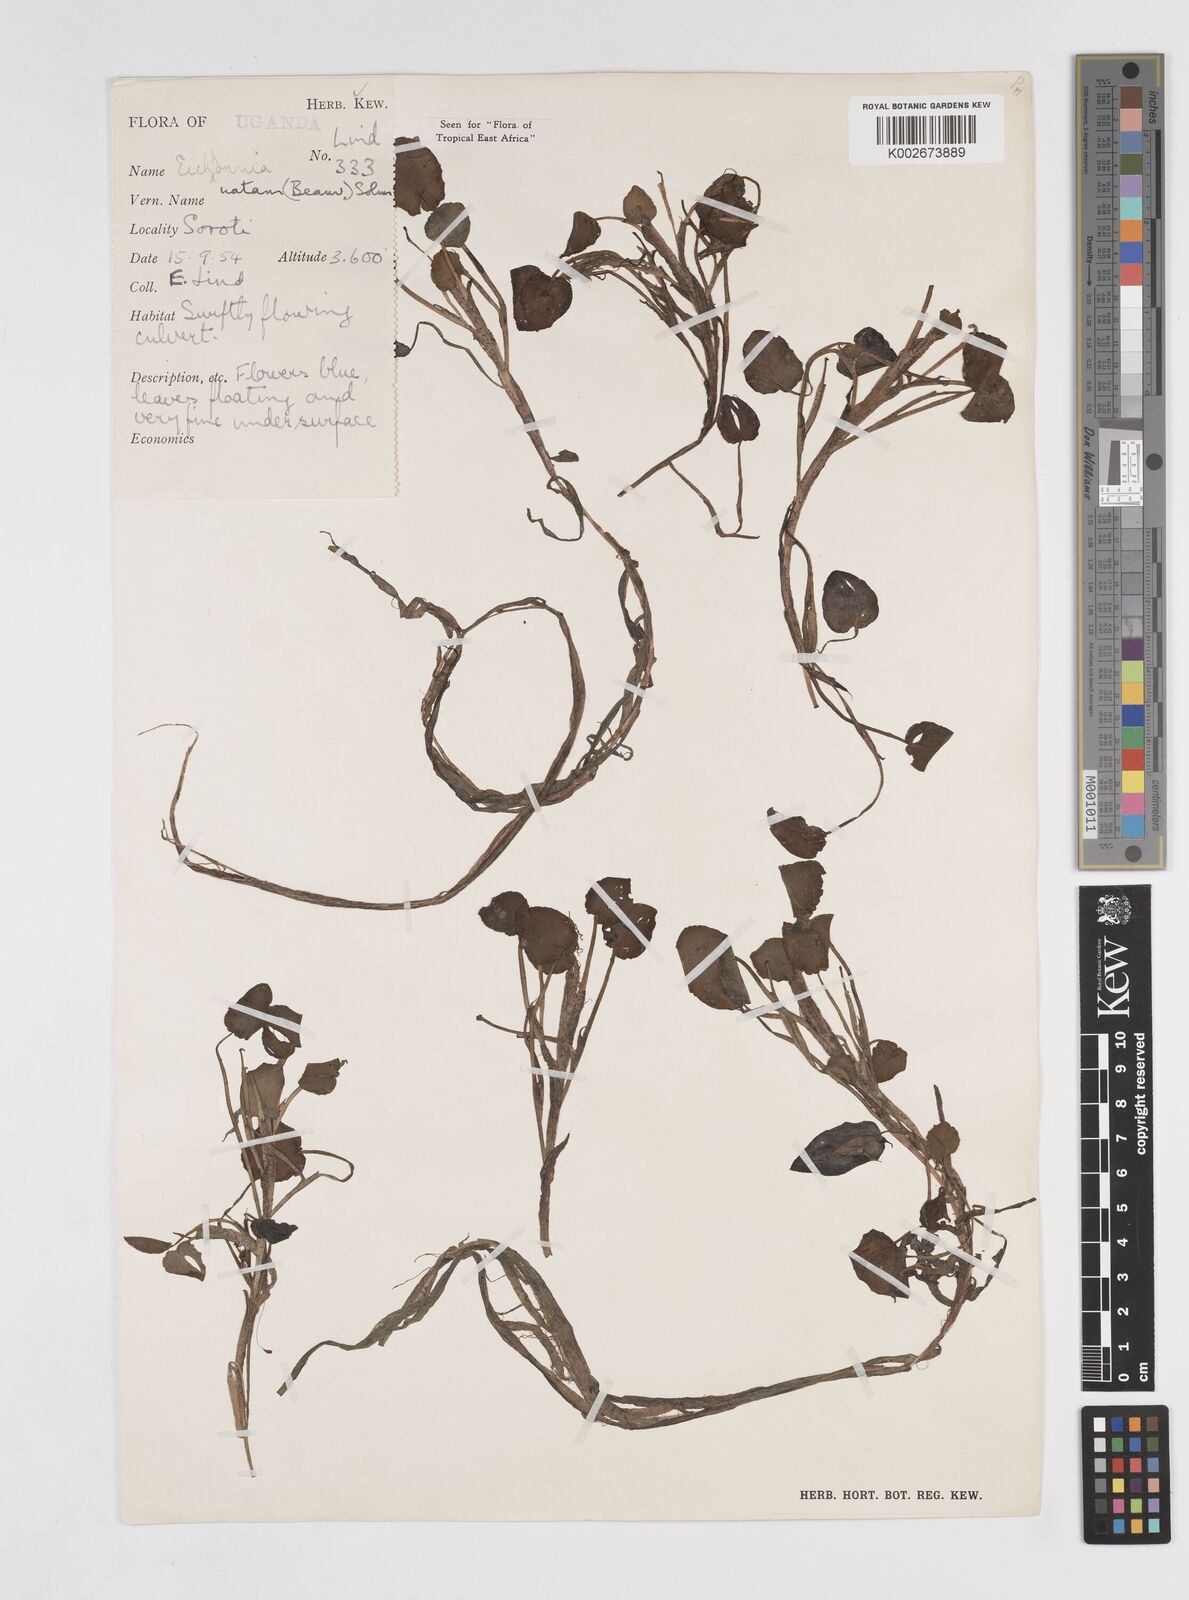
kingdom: Plantae
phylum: Tracheophyta
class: Liliopsida
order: Commelinales
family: Pontederiaceae
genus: Pontederia
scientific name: Pontederia diversifolia
